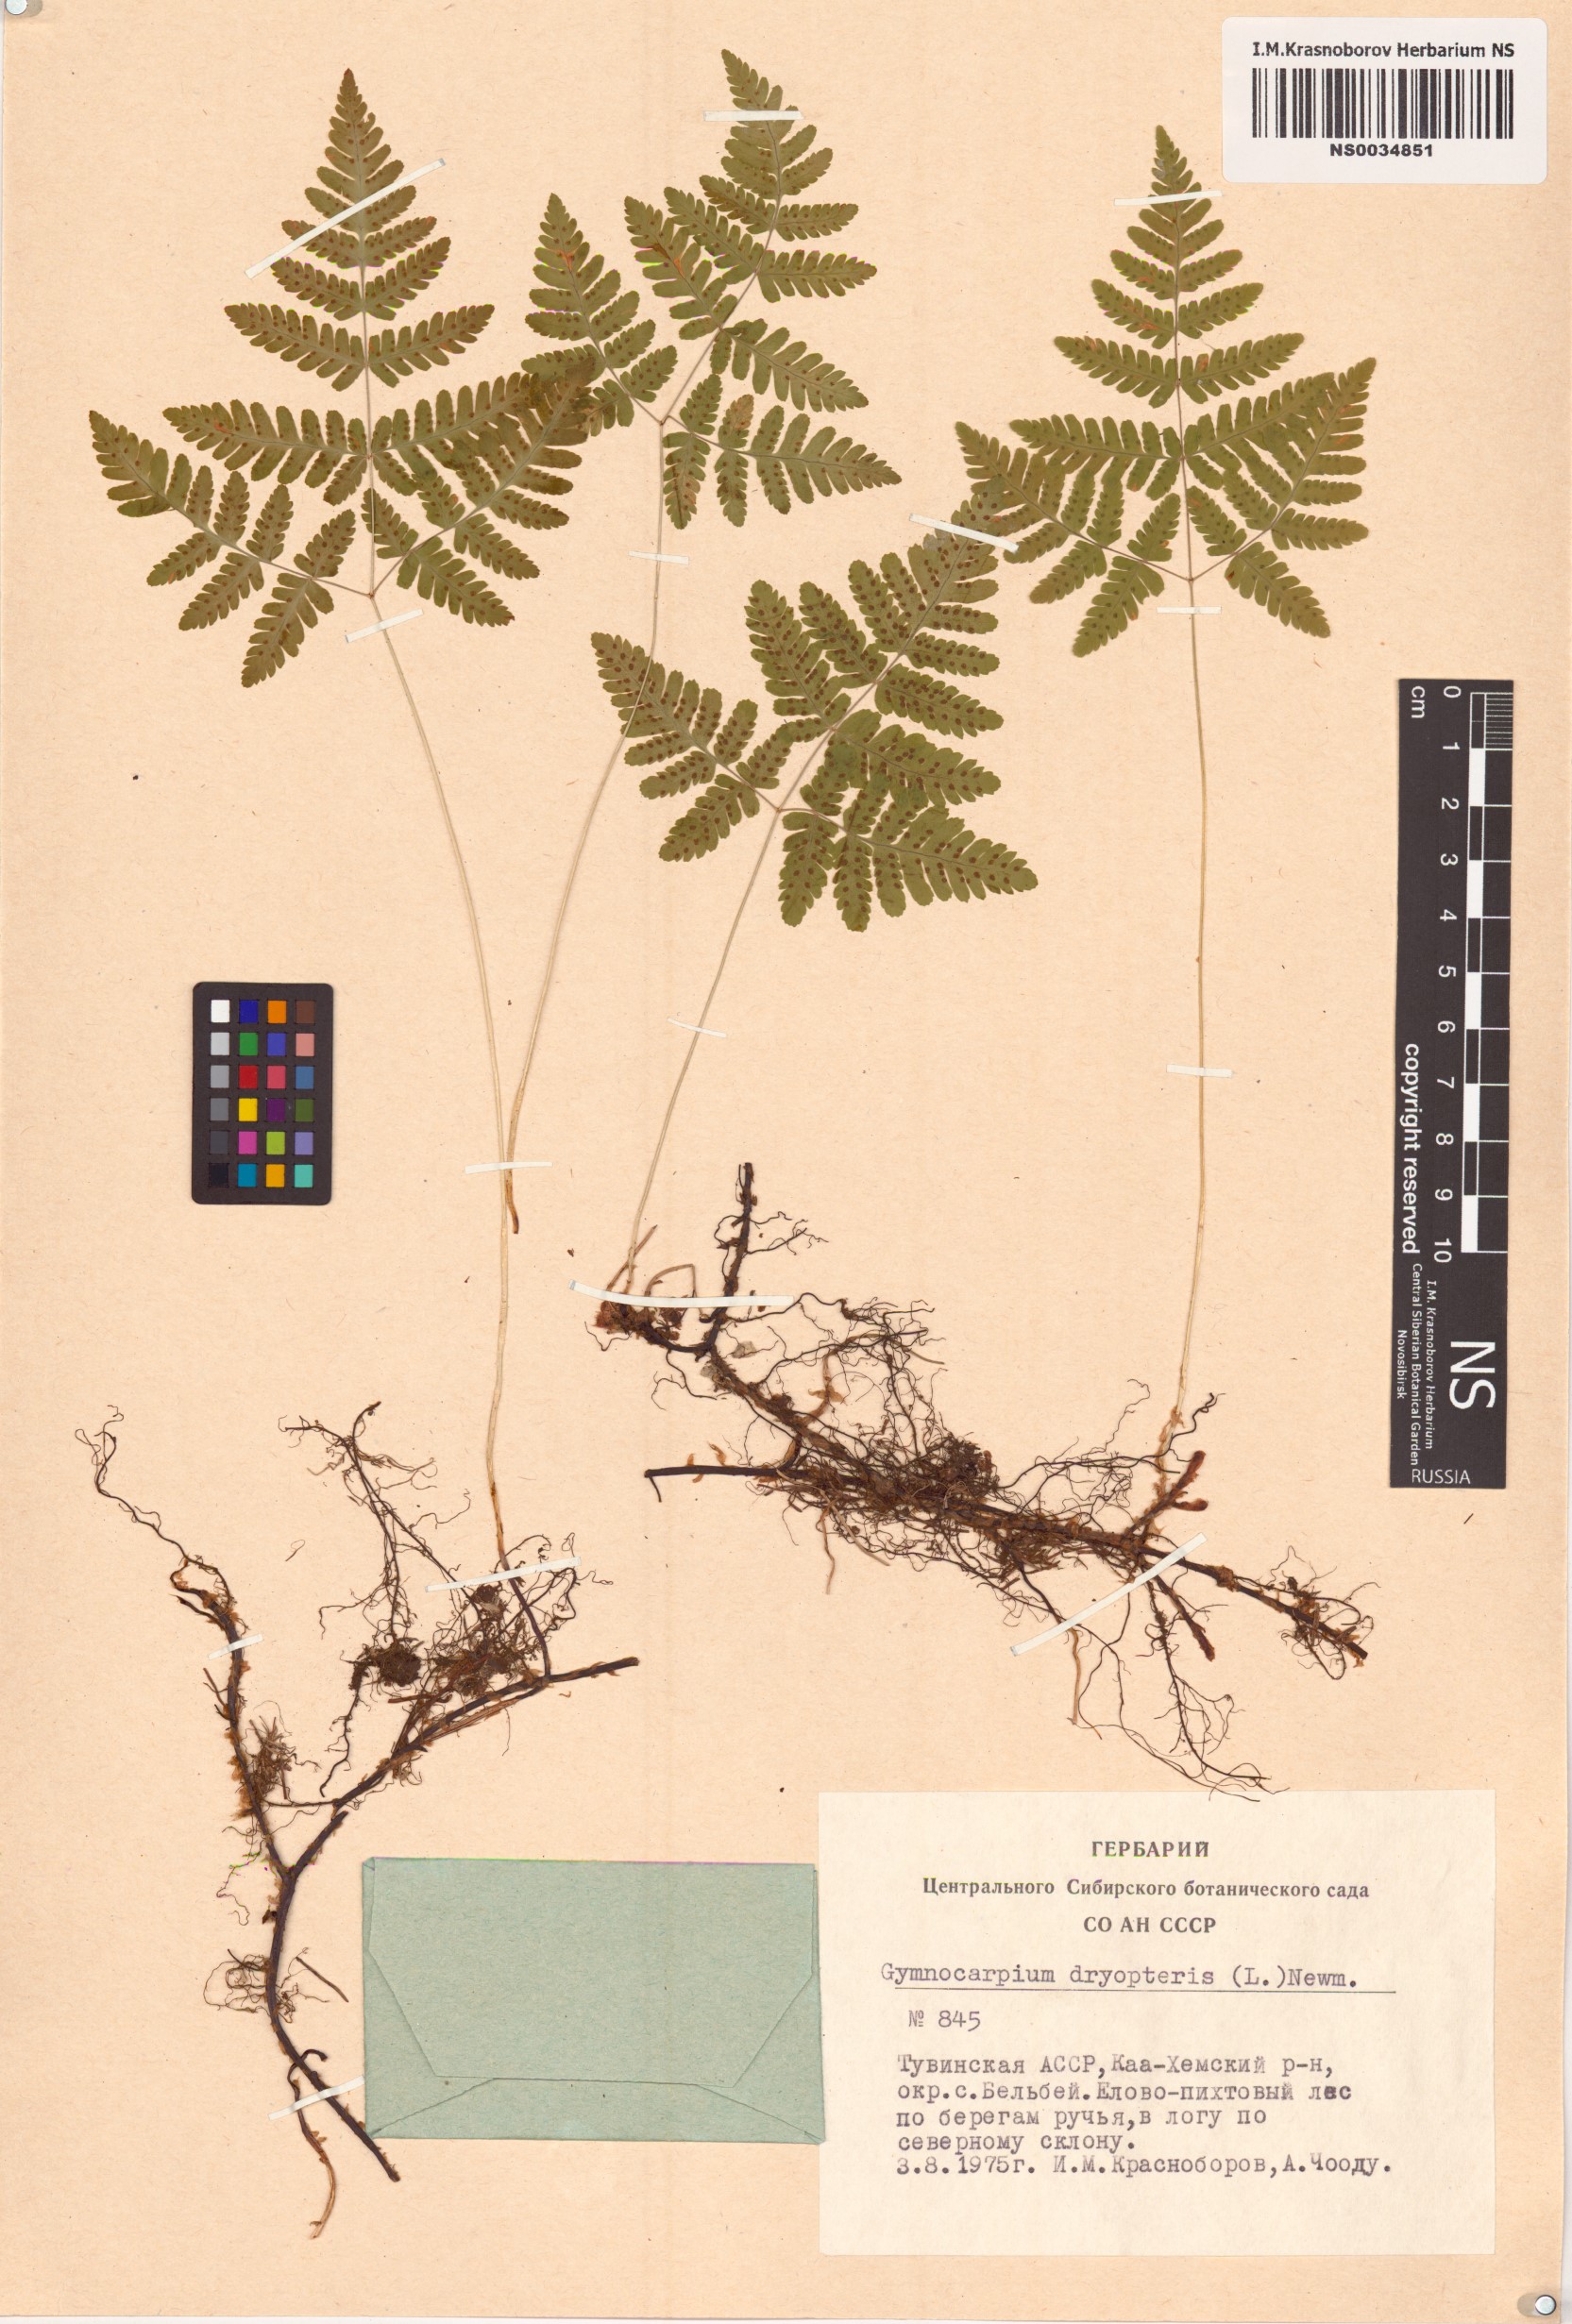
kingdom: Plantae
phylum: Tracheophyta
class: Polypodiopsida
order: Polypodiales
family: Cystopteridaceae
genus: Gymnocarpium
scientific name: Gymnocarpium dryopteris
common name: Oak fern
